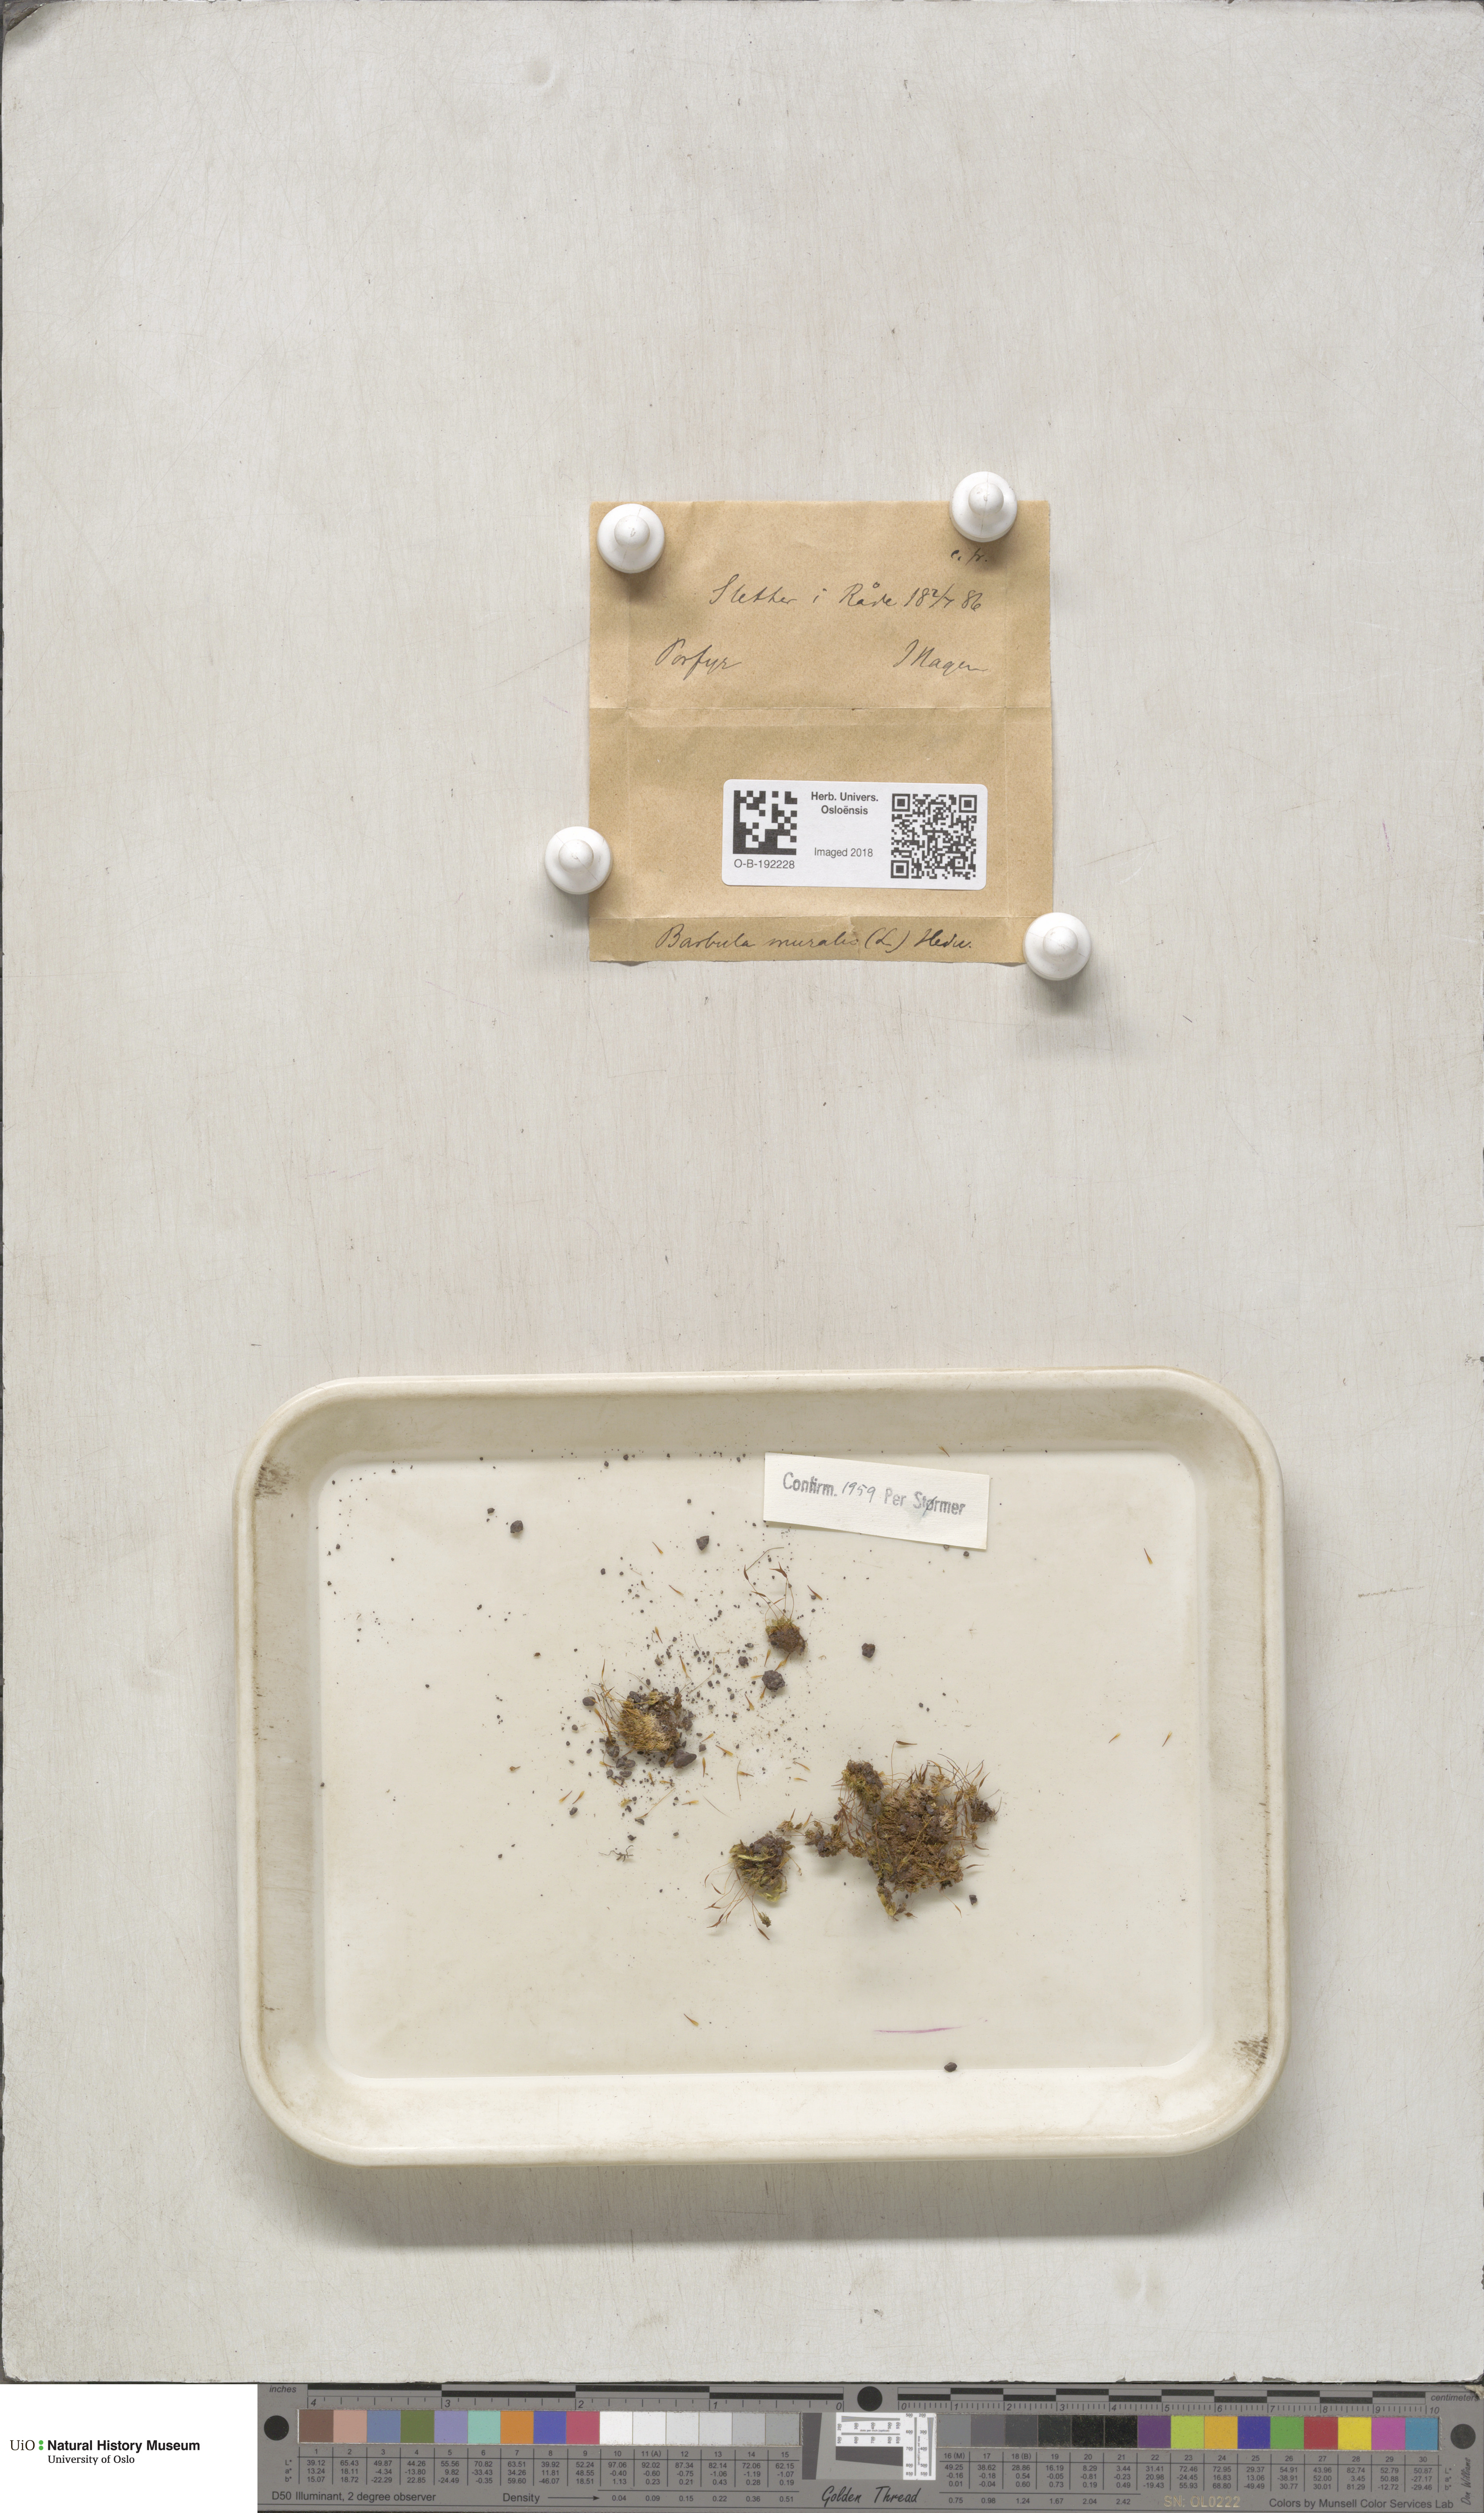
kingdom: Plantae
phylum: Bryophyta
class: Bryopsida
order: Pottiales
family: Pottiaceae
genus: Tortula
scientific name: Tortula muralis
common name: Wall screw-moss
